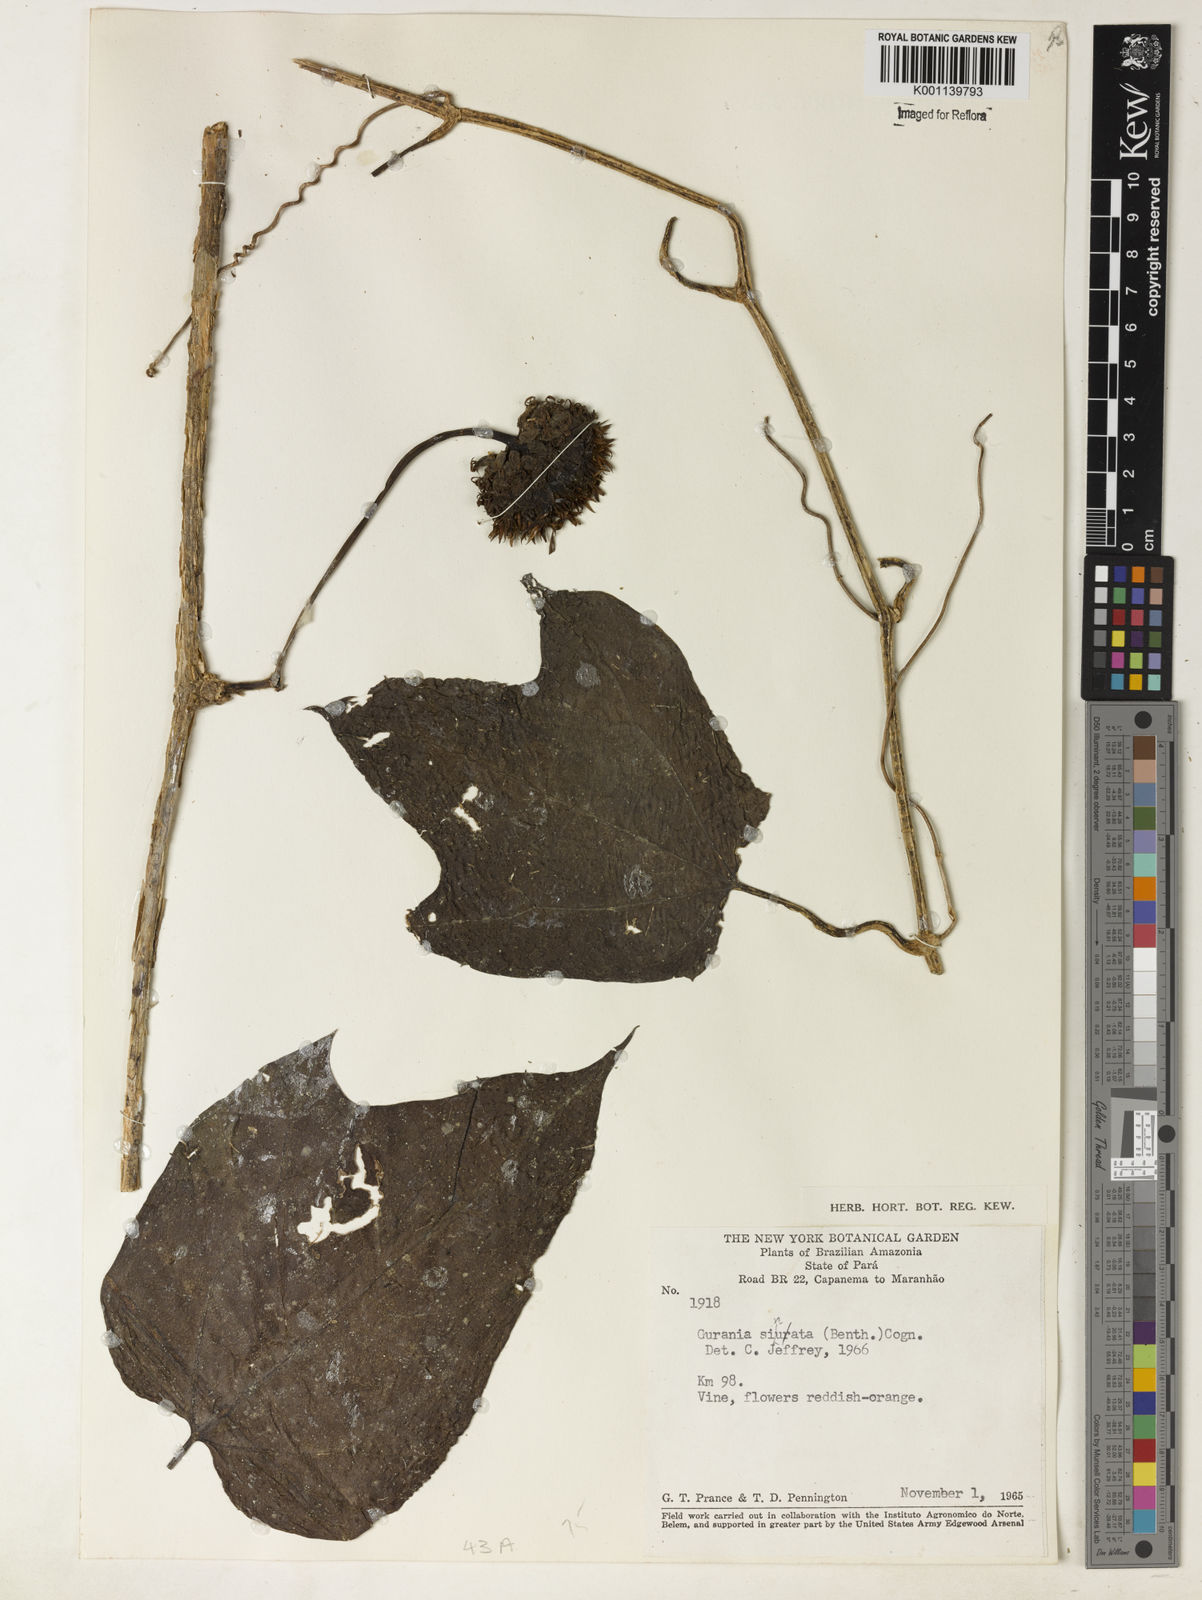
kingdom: Plantae
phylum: Tracheophyta
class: Magnoliopsida
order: Cucurbitales
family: Cucurbitaceae
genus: Gurania
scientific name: Gurania sinuata
